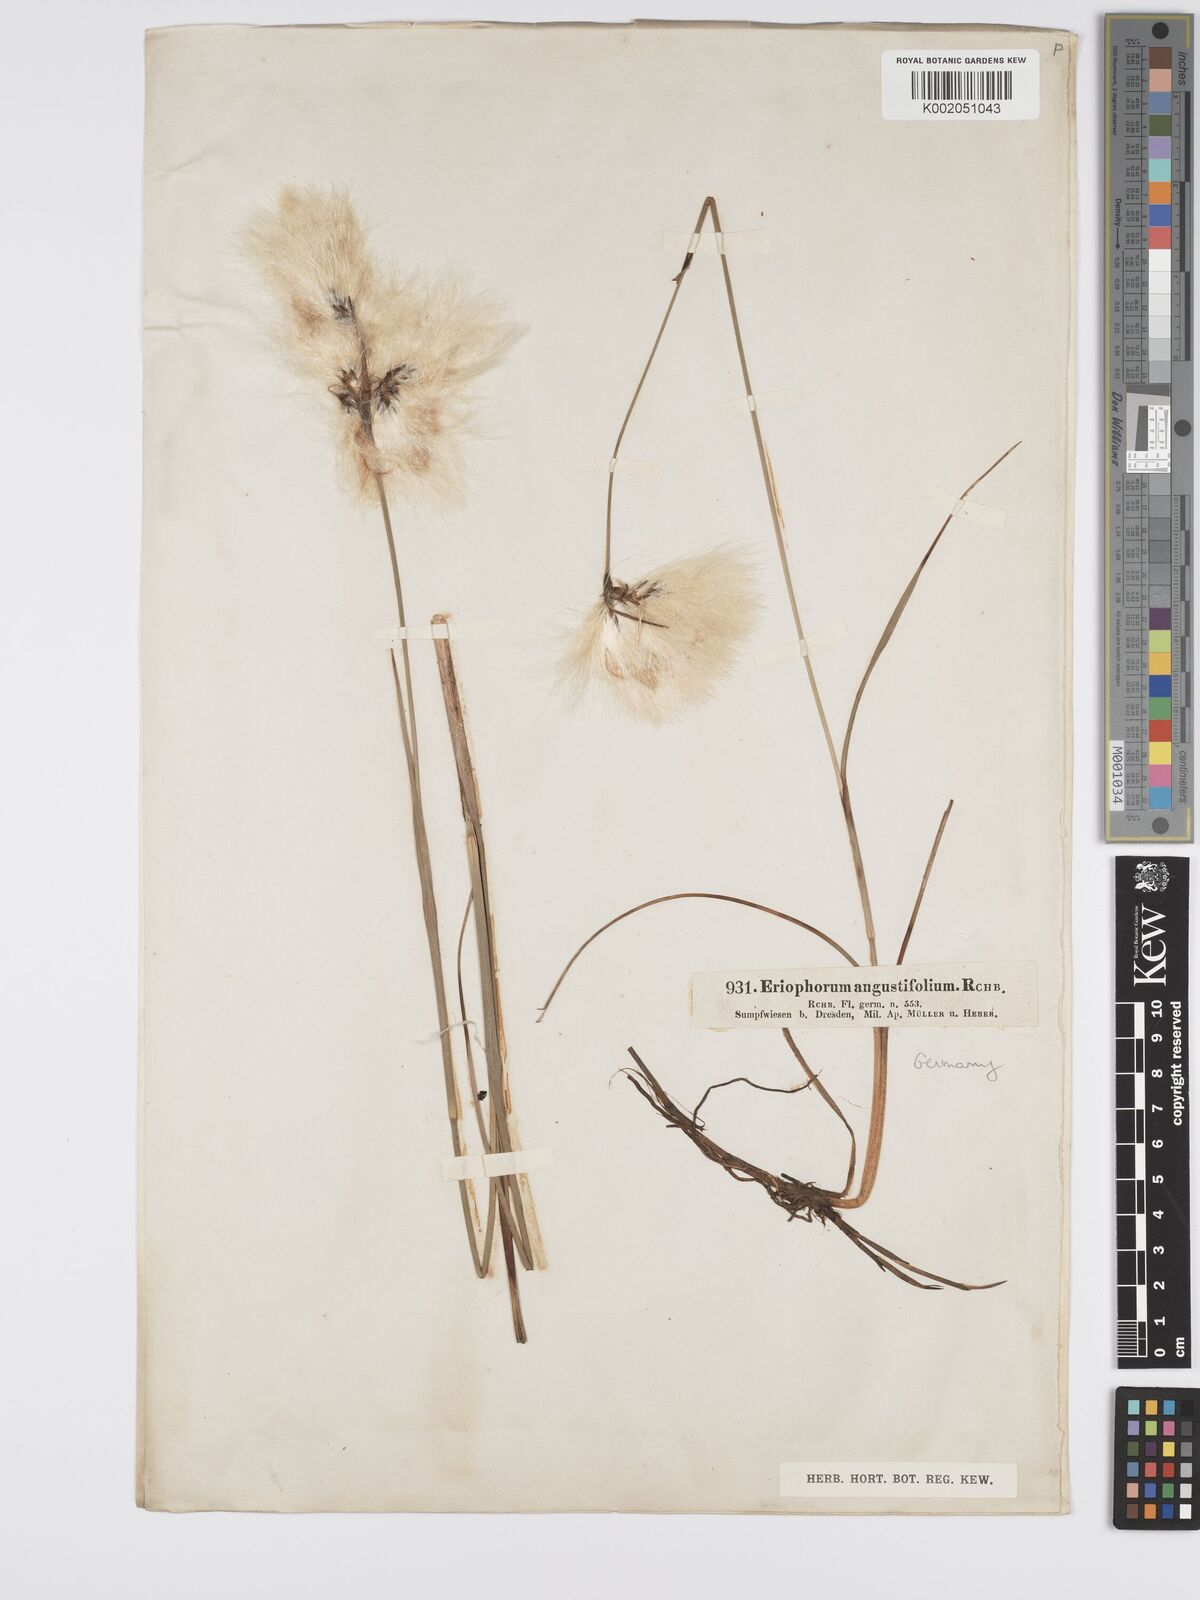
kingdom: Plantae
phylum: Tracheophyta
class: Liliopsida
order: Poales
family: Cyperaceae
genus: Eriophorum
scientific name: Eriophorum angustifolium
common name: Common cottongrass
